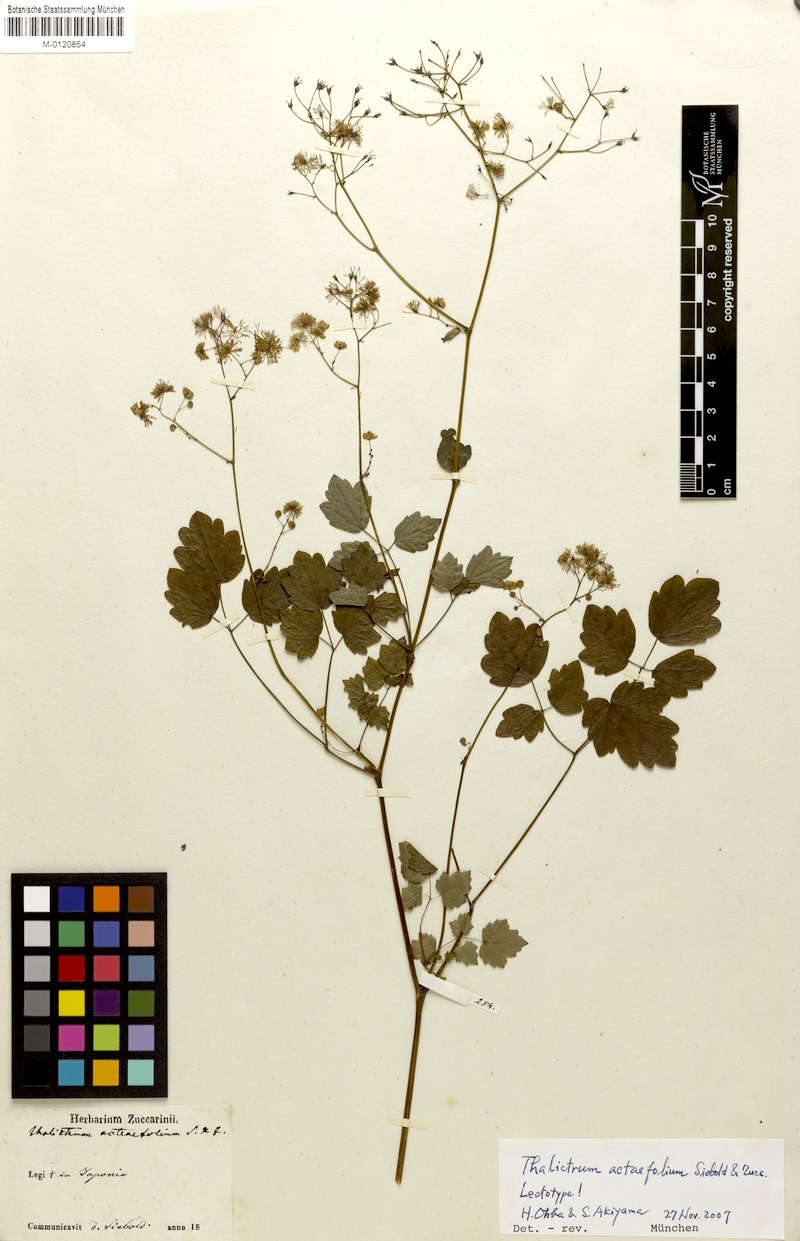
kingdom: Plantae
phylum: Tracheophyta
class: Magnoliopsida
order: Ranunculales
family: Ranunculaceae
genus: Thalictrum
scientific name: Thalictrum actaeifolium
